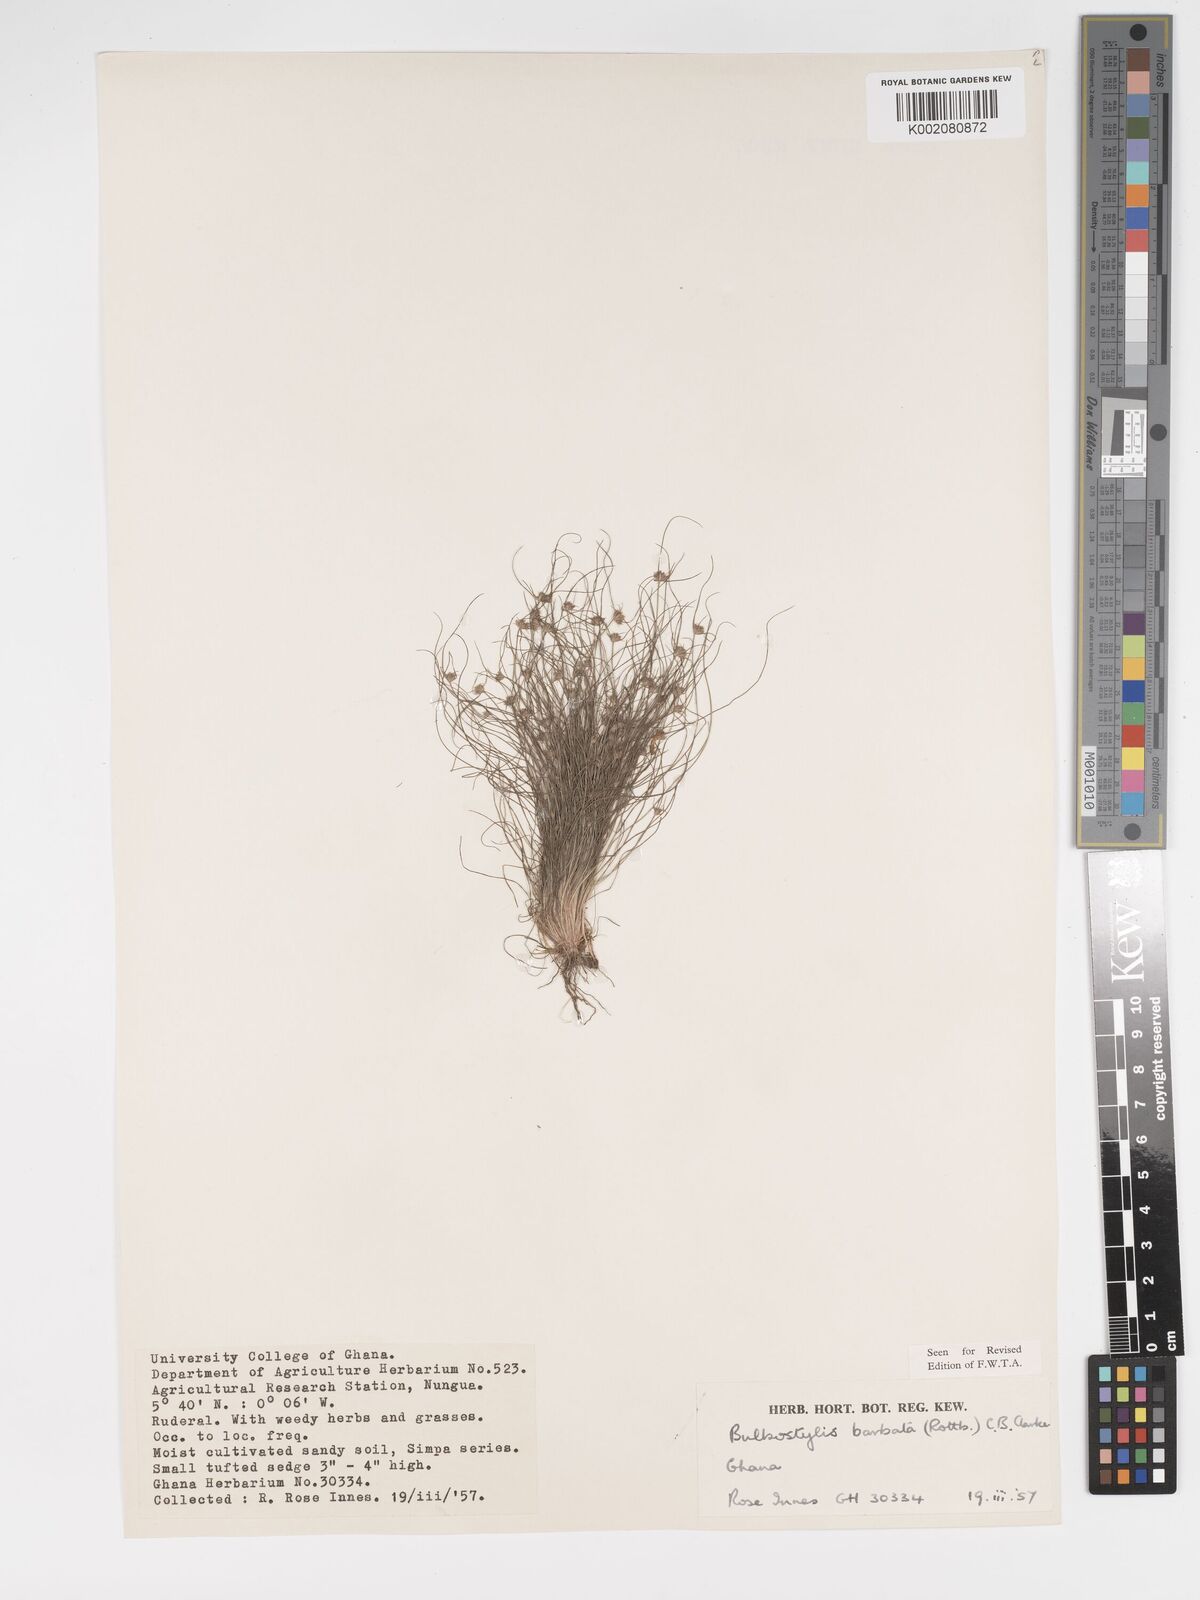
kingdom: Plantae
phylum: Tracheophyta
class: Liliopsida
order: Poales
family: Cyperaceae
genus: Bulbostylis
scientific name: Bulbostylis barbata
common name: Watergrass
